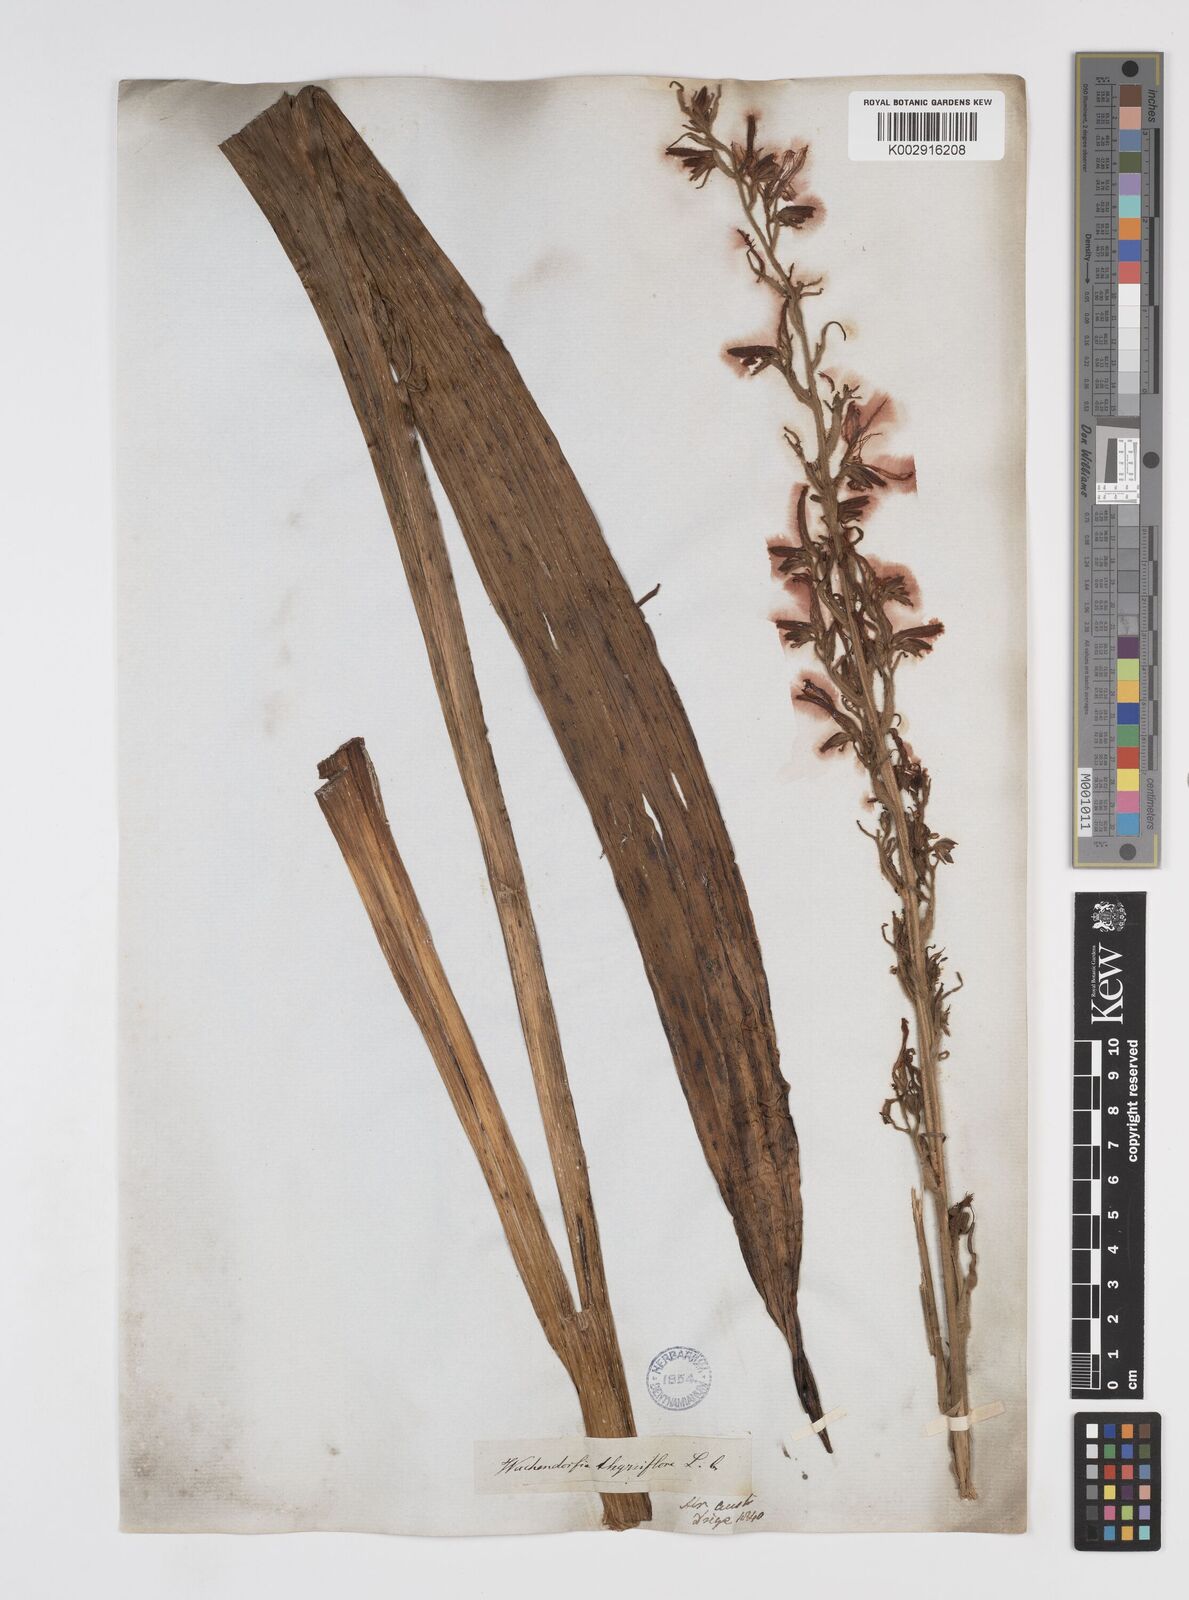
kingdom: Plantae
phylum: Tracheophyta
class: Liliopsida
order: Commelinales
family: Haemodoraceae
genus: Wachendorfia
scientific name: Wachendorfia thyrsiflora
